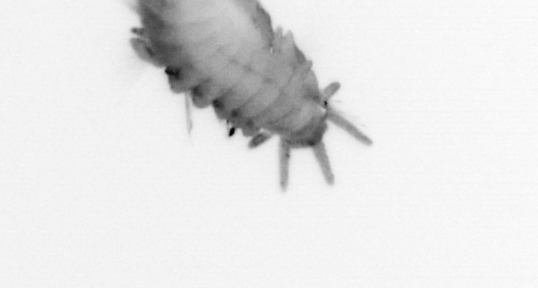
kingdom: Animalia
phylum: Annelida
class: Polychaeta
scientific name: Polychaeta
